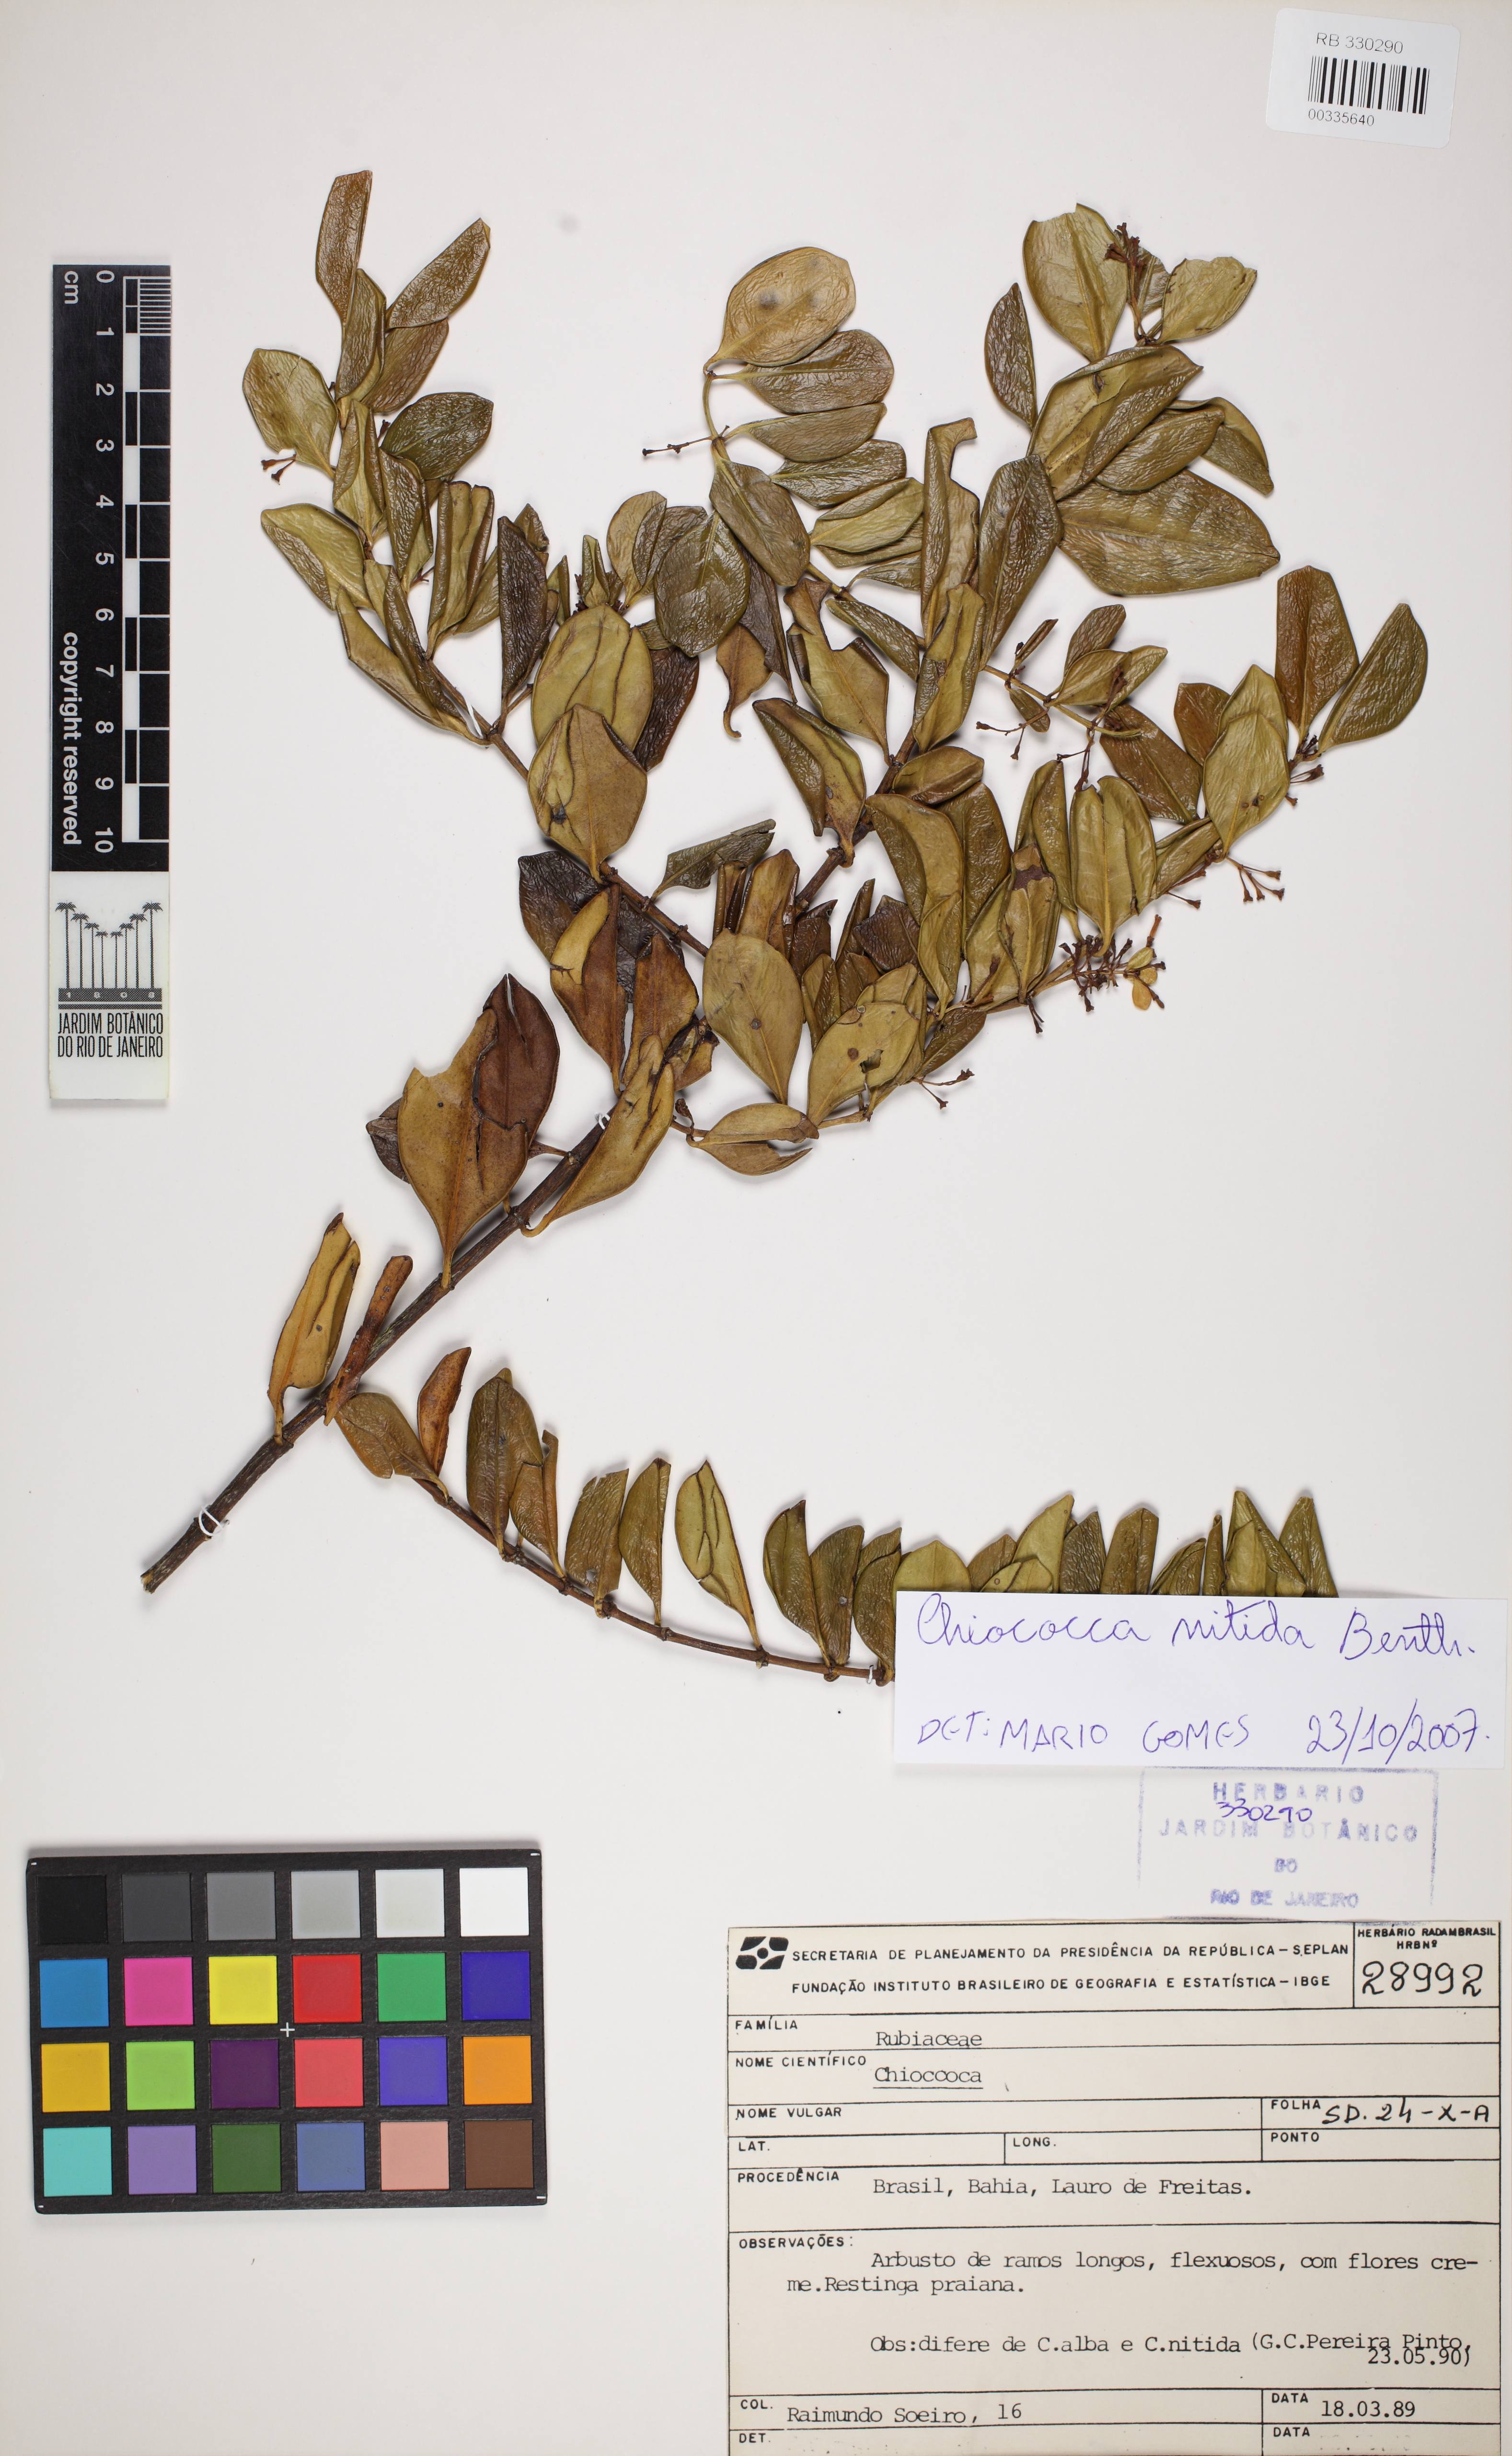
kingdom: Plantae
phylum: Tracheophyta
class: Magnoliopsida
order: Gentianales
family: Rubiaceae
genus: Salzmannia
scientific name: Salzmannia plowmanii
